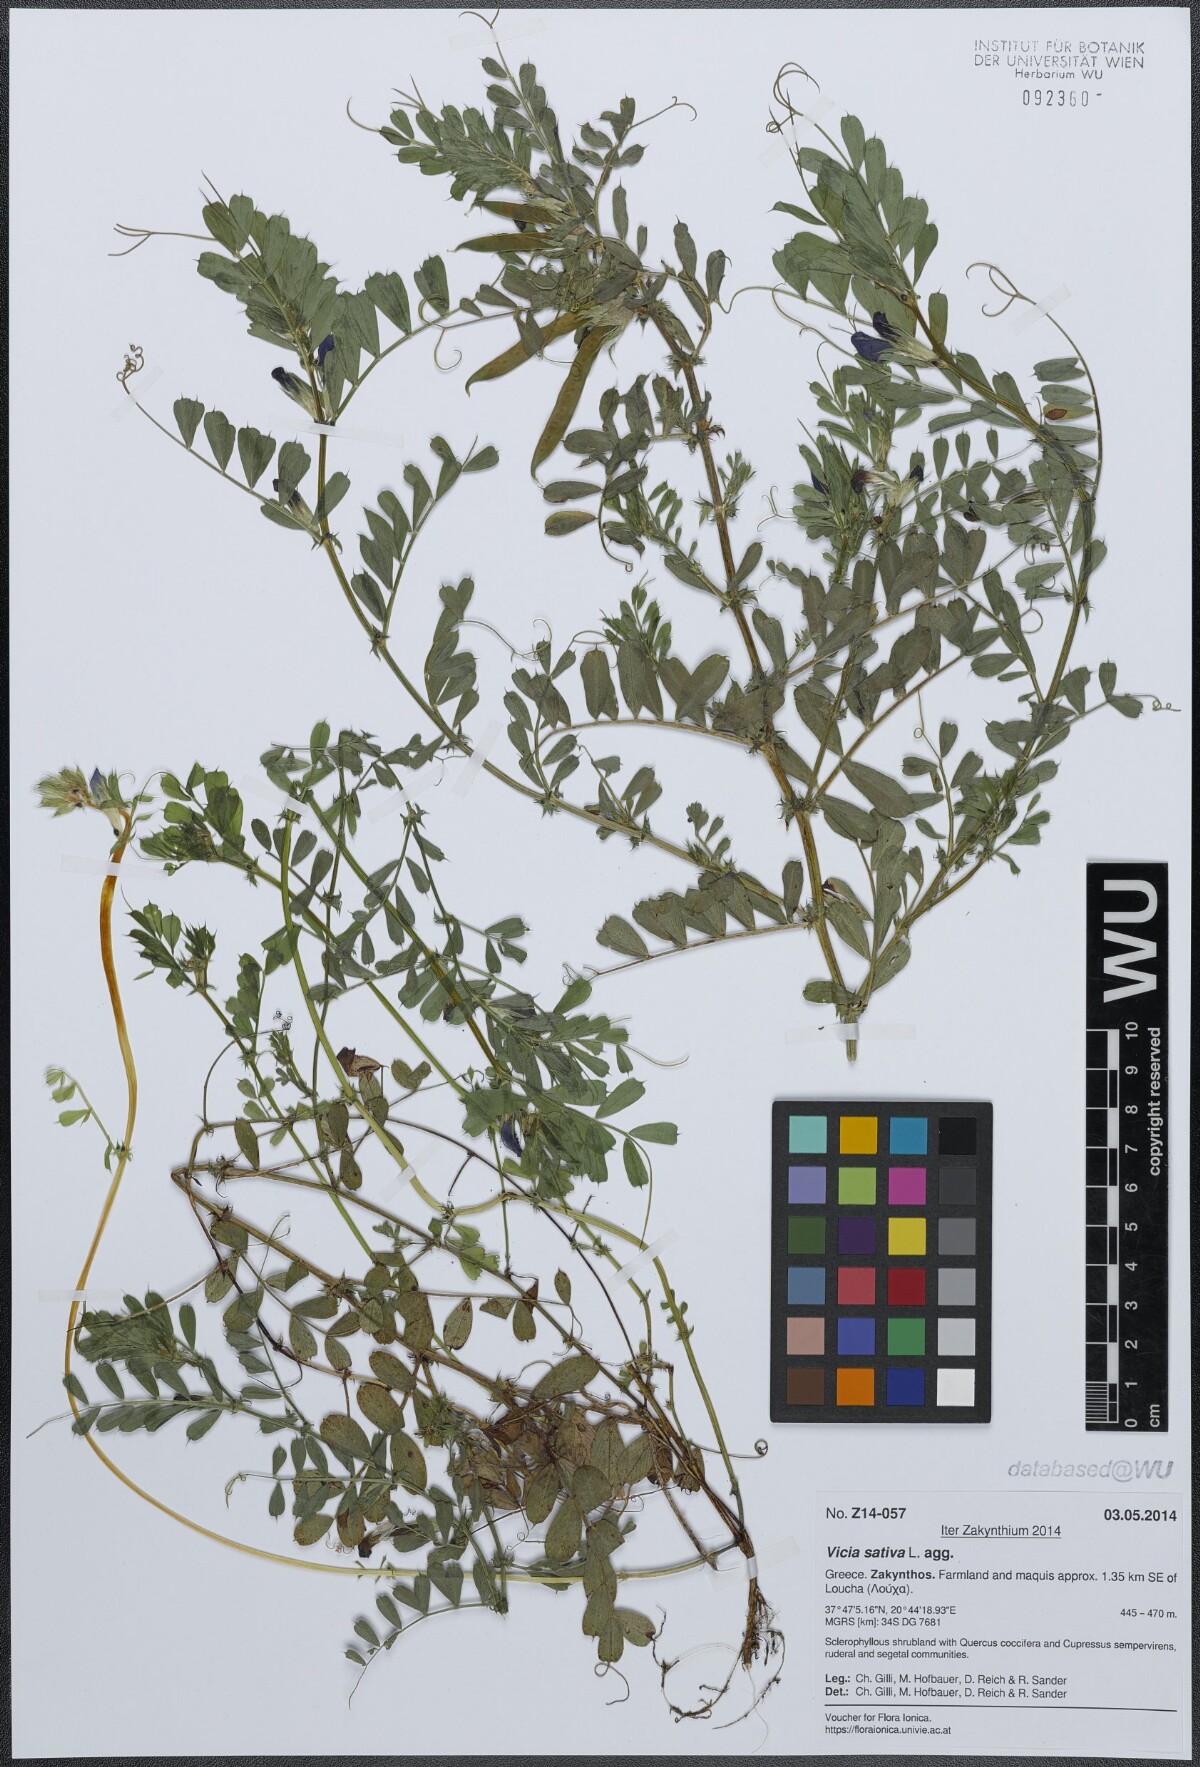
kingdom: Plantae
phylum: Tracheophyta
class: Magnoliopsida
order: Fabales
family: Fabaceae
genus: Vicia
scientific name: Vicia sativa
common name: Garden vetch
